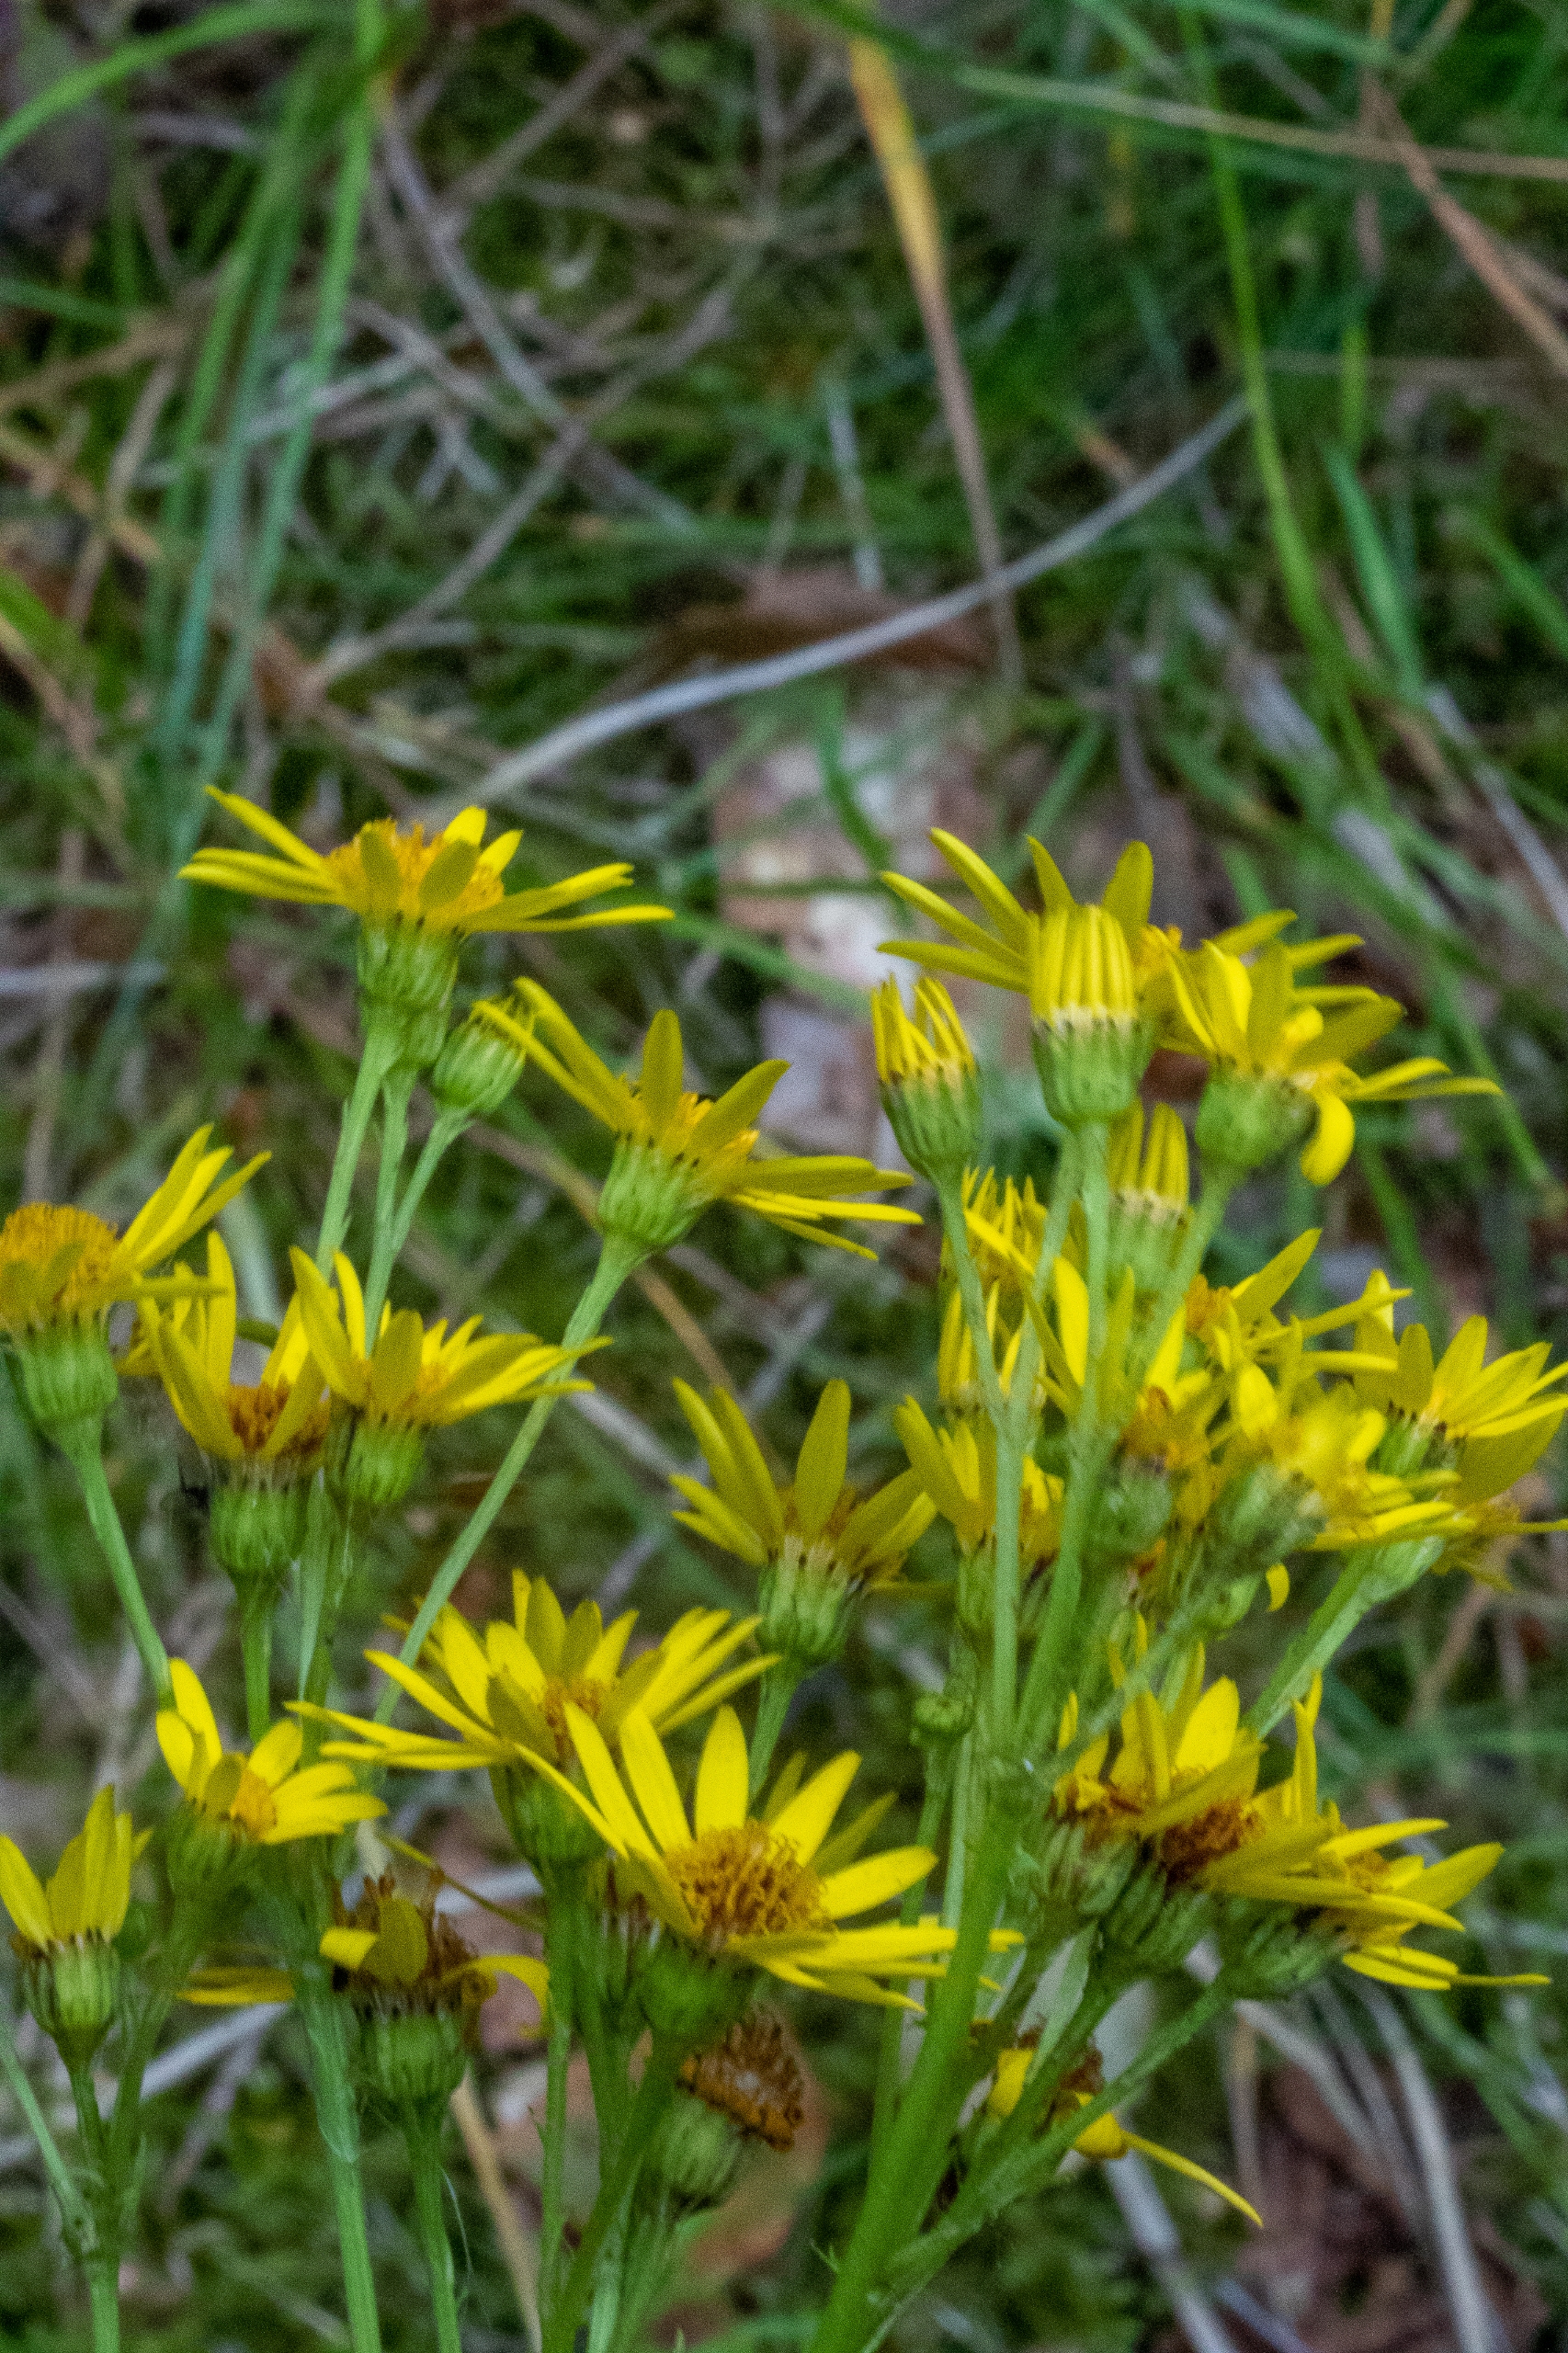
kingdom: Plantae
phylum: Tracheophyta
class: Magnoliopsida
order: Asterales
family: Asteraceae
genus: Jacobaea
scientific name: Jacobaea vulgaris
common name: Eng-brandbæger
